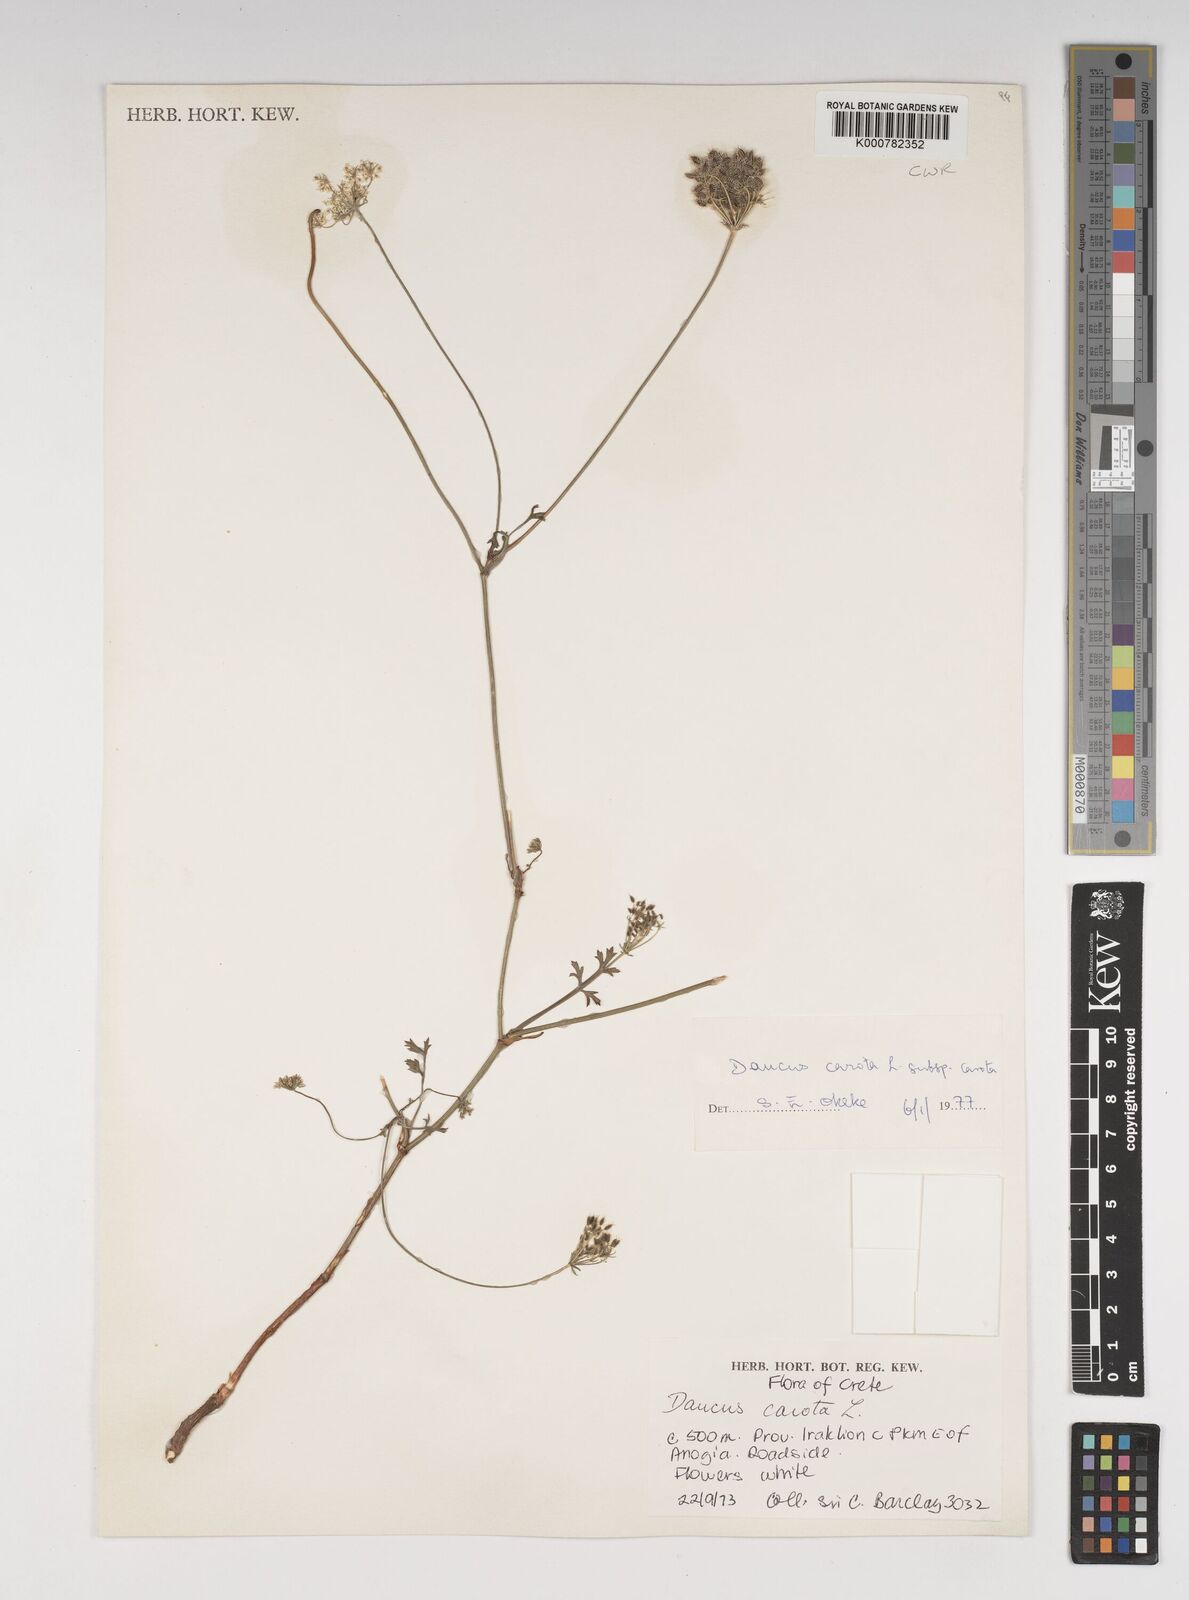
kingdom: Plantae
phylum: Tracheophyta
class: Magnoliopsida
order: Apiales
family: Apiaceae
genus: Daucus
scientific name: Daucus carota
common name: Wild carrot
